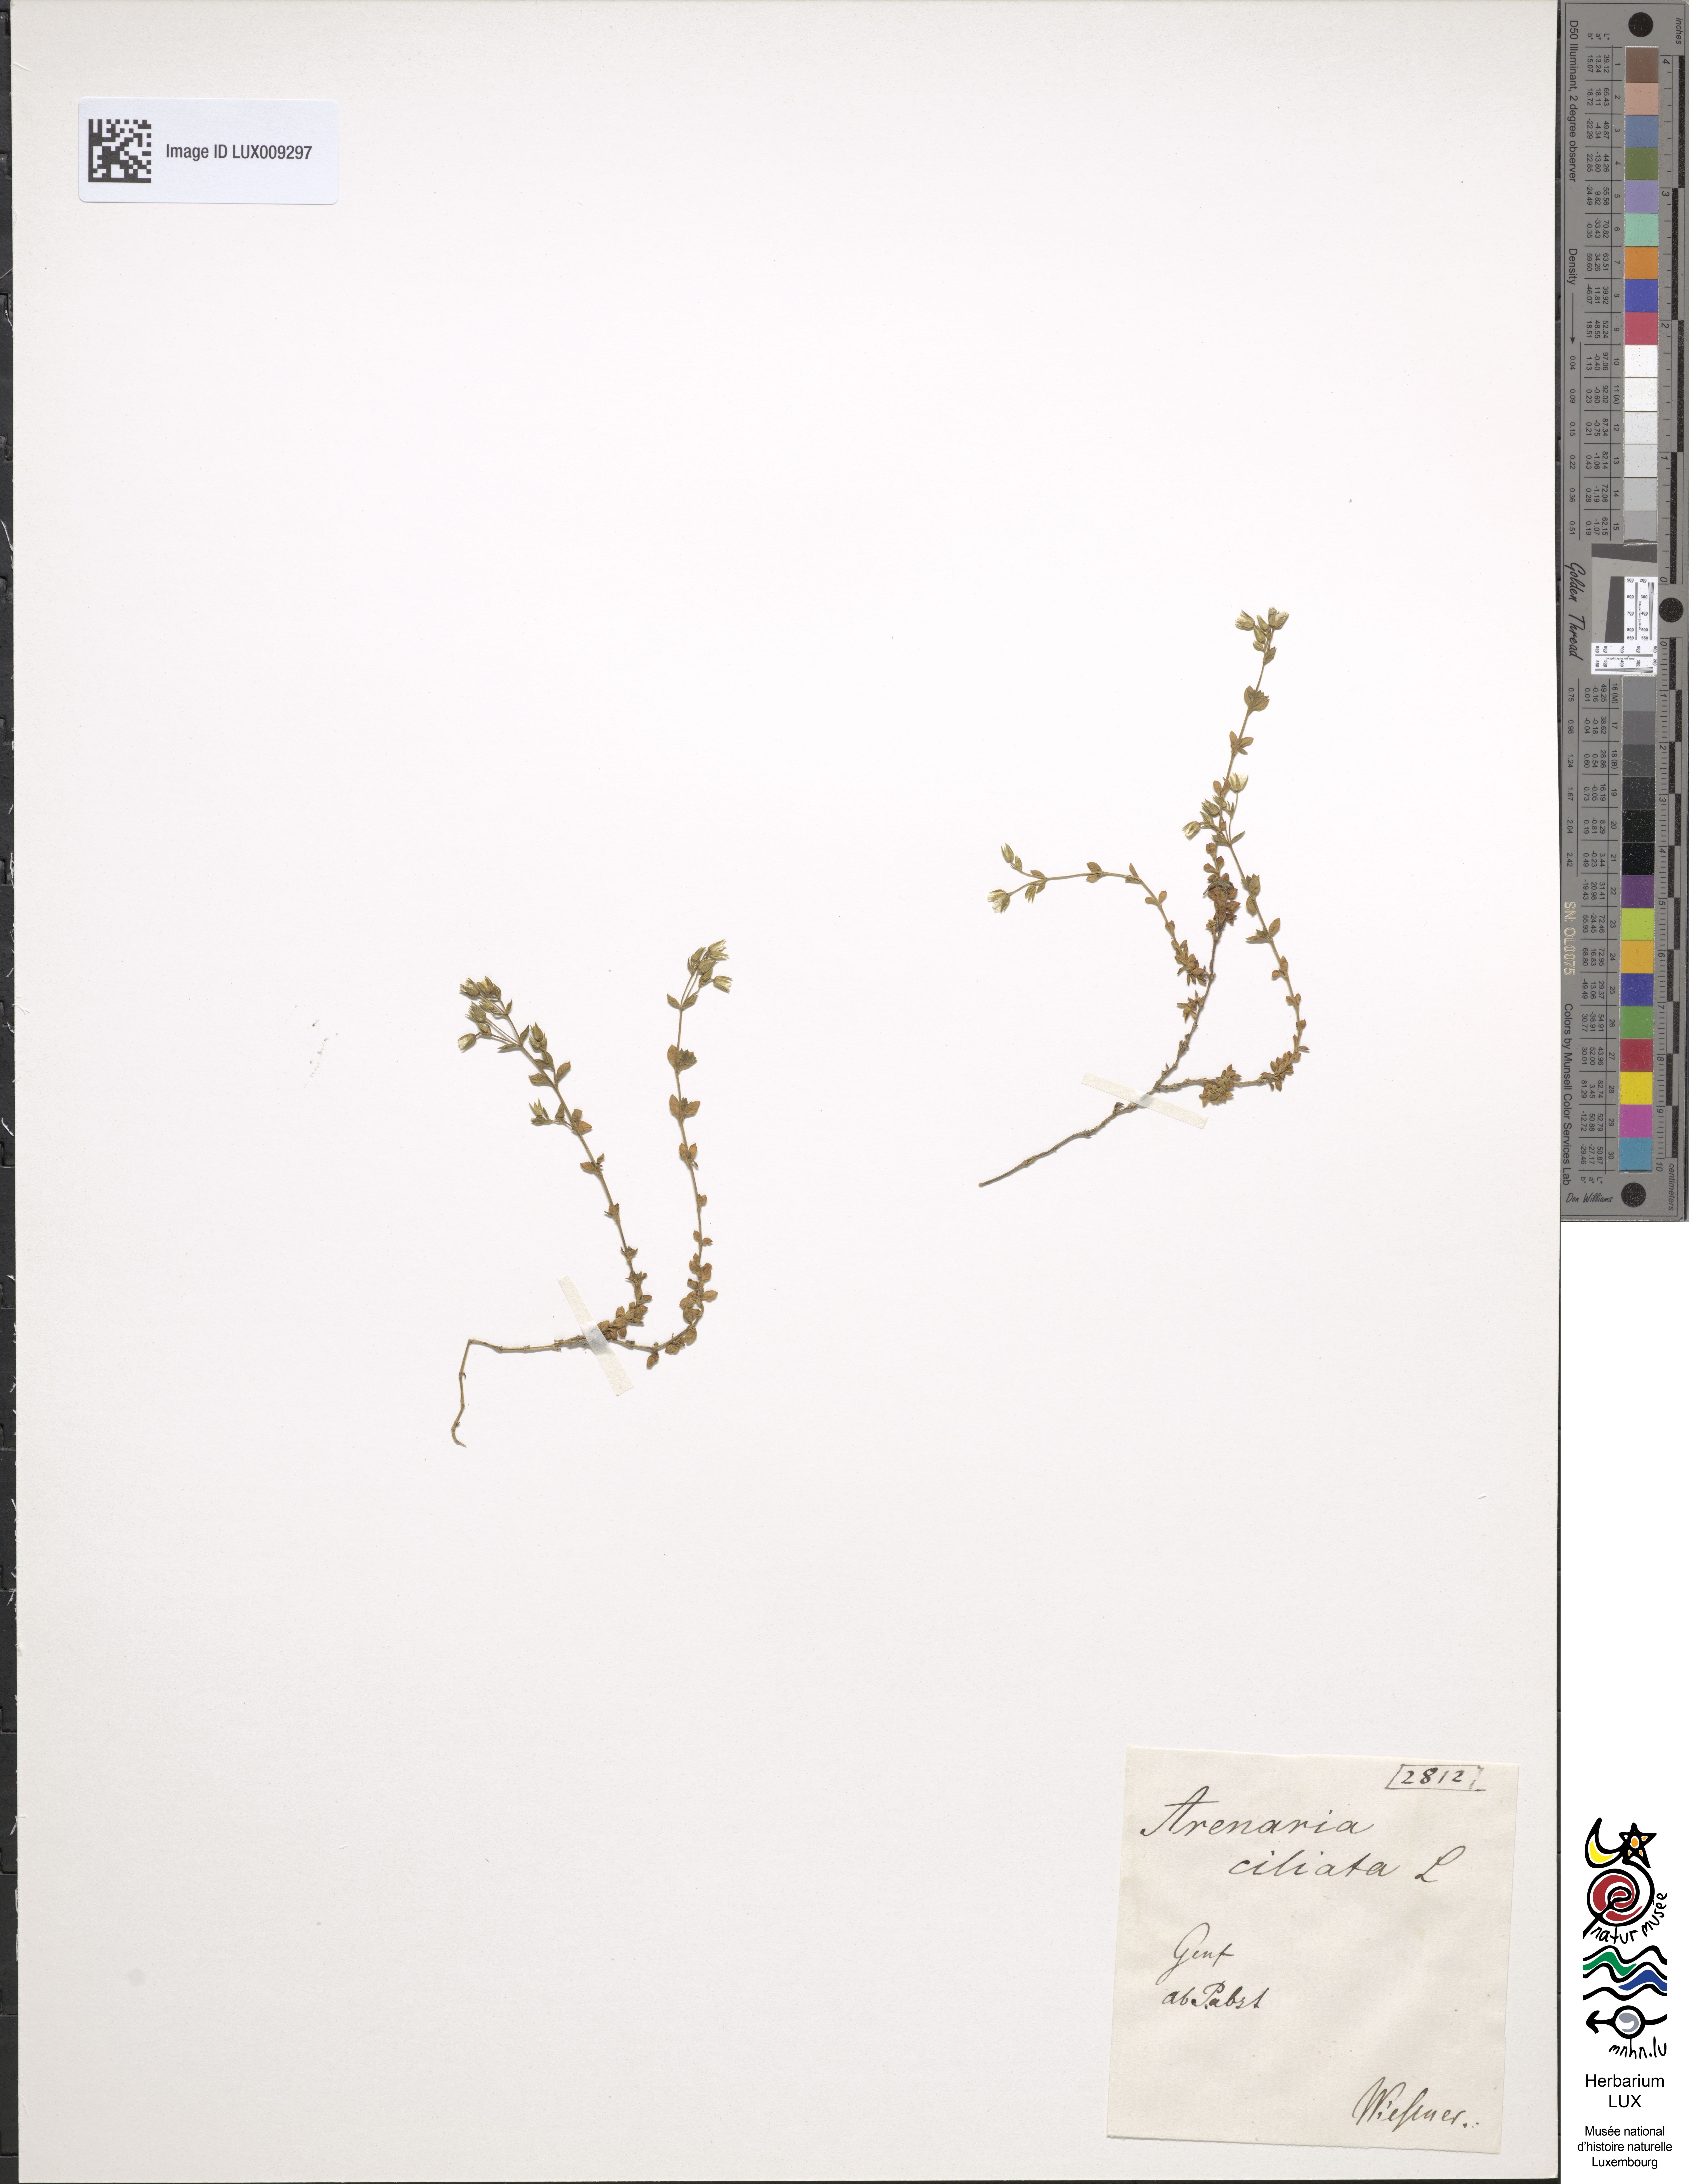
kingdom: Animalia
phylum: Chordata
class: Aves
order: Charadriiformes
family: Scolopacidae
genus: Arenaria
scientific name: Arenaria
